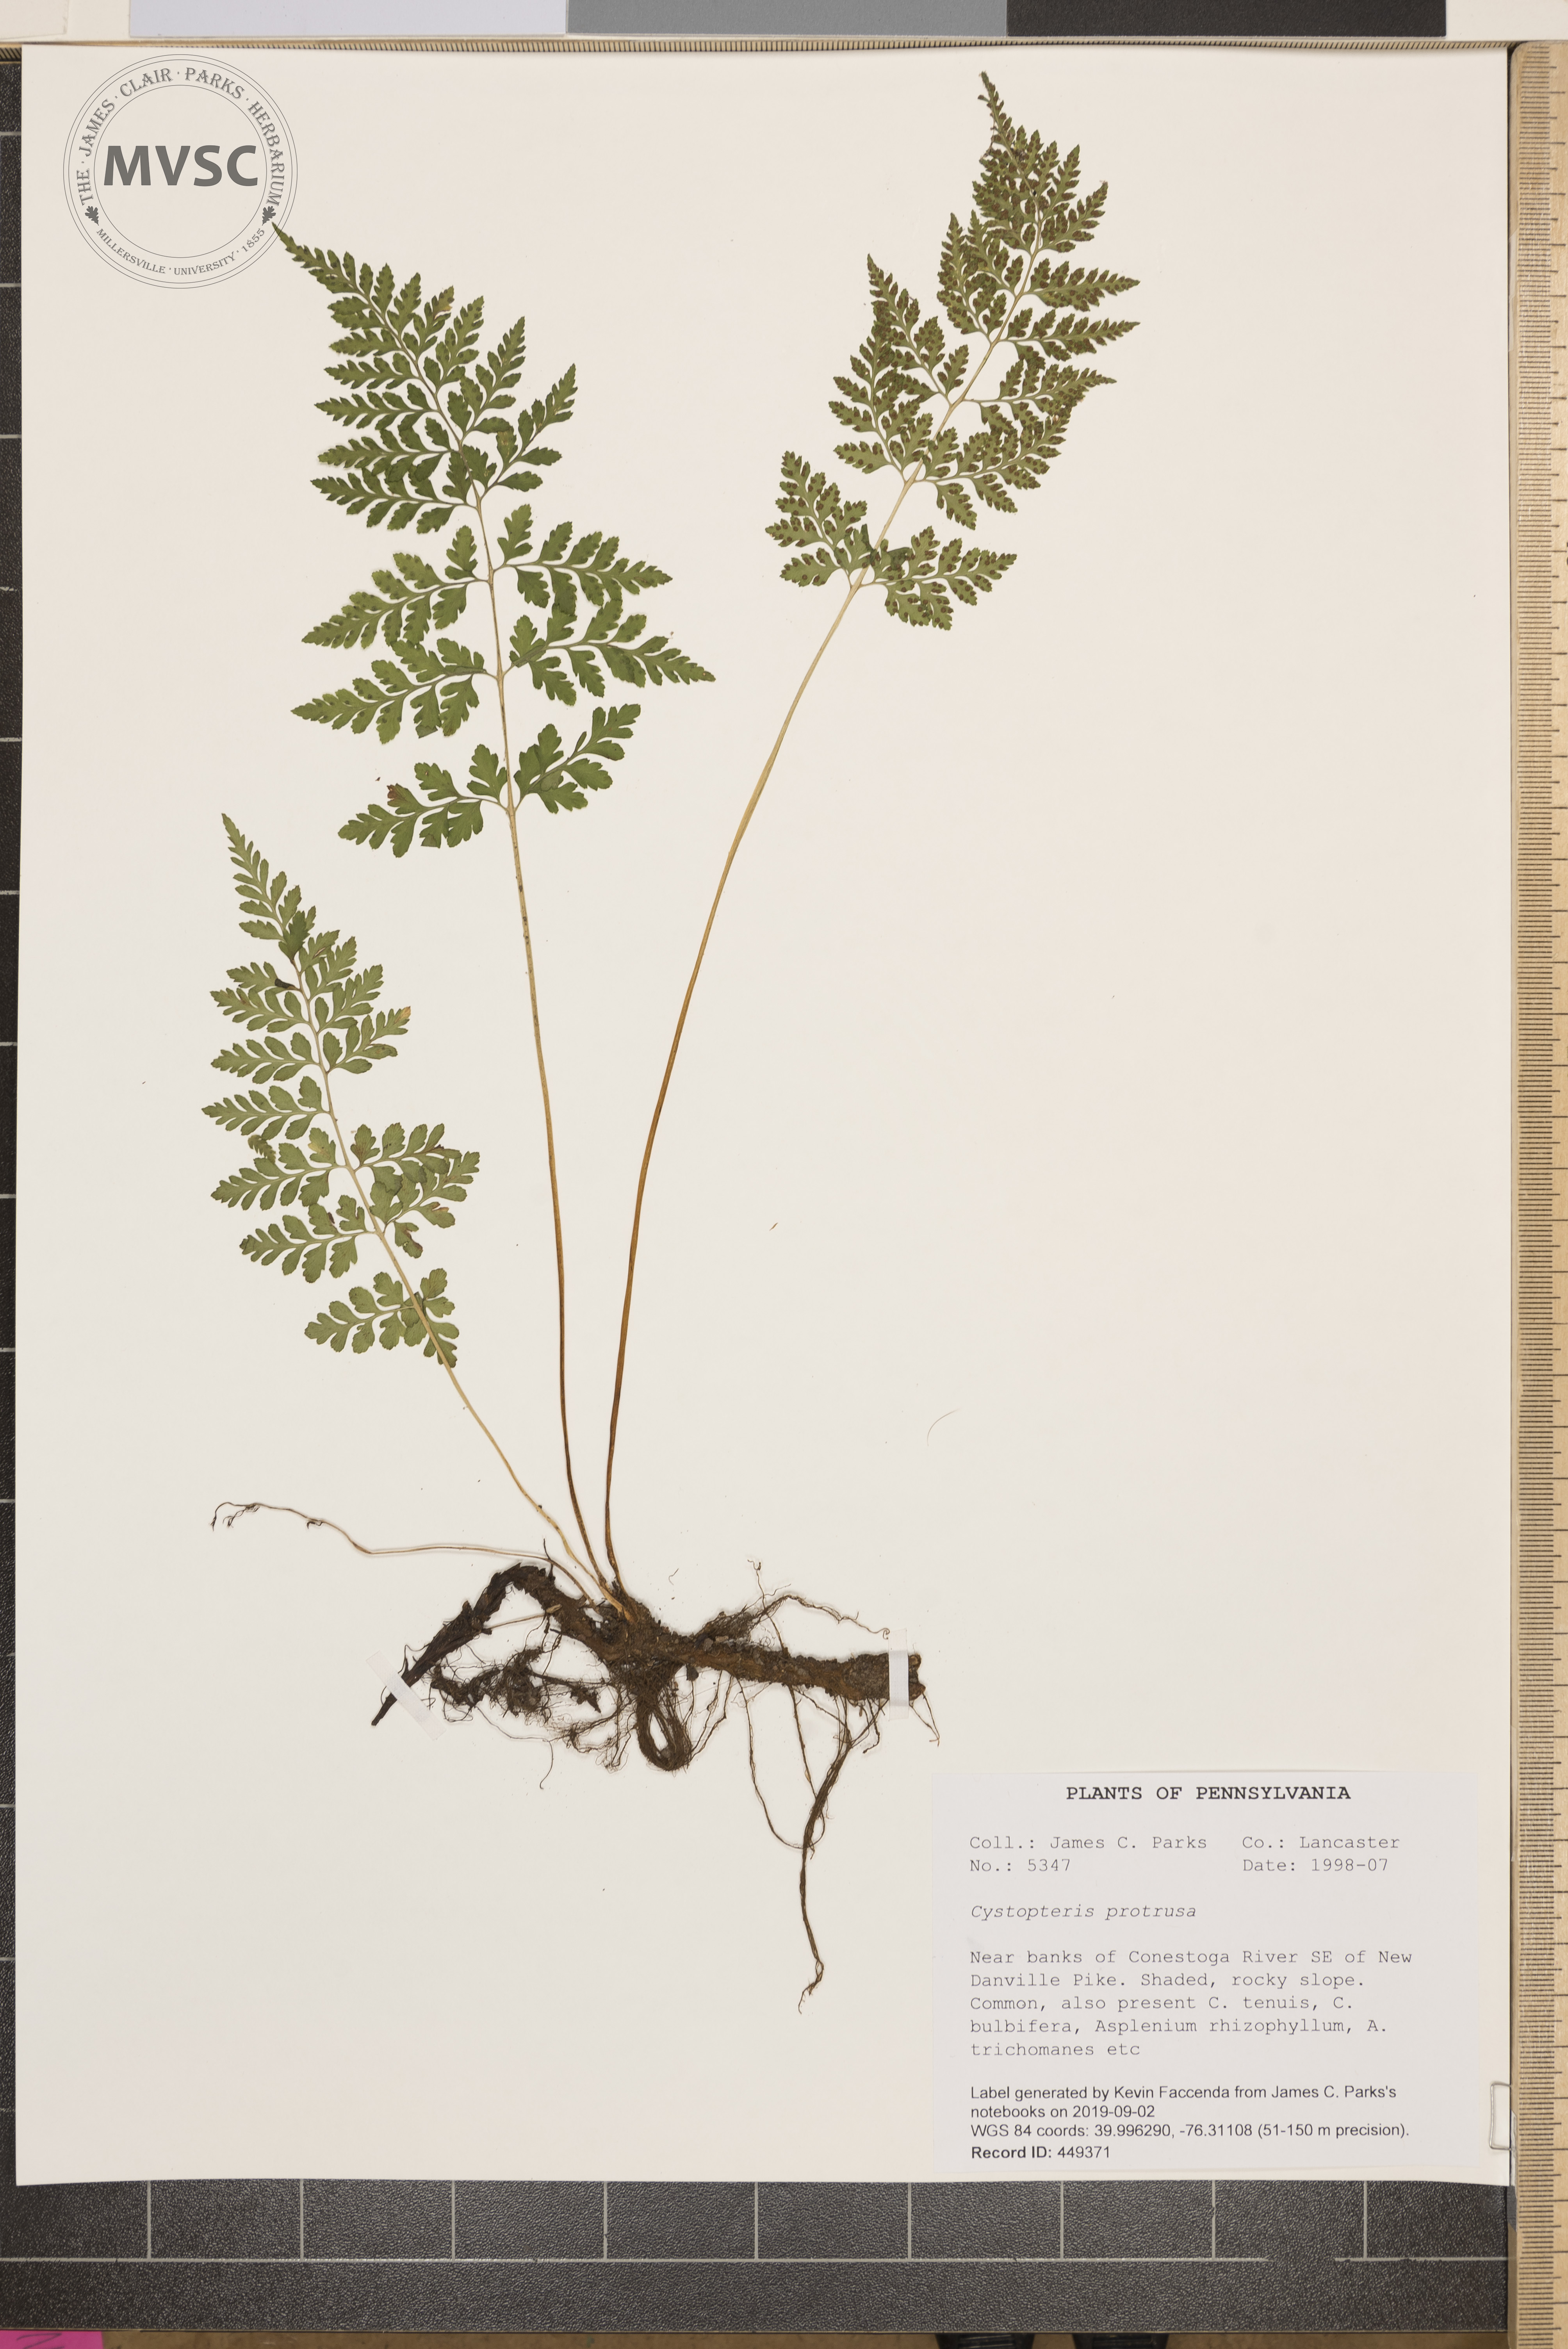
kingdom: Plantae
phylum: Tracheophyta
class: Polypodiopsida
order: Polypodiales
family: Cystopteridaceae
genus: Cystopteris
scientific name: Cystopteris protrusa
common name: Lowland brittle fern
